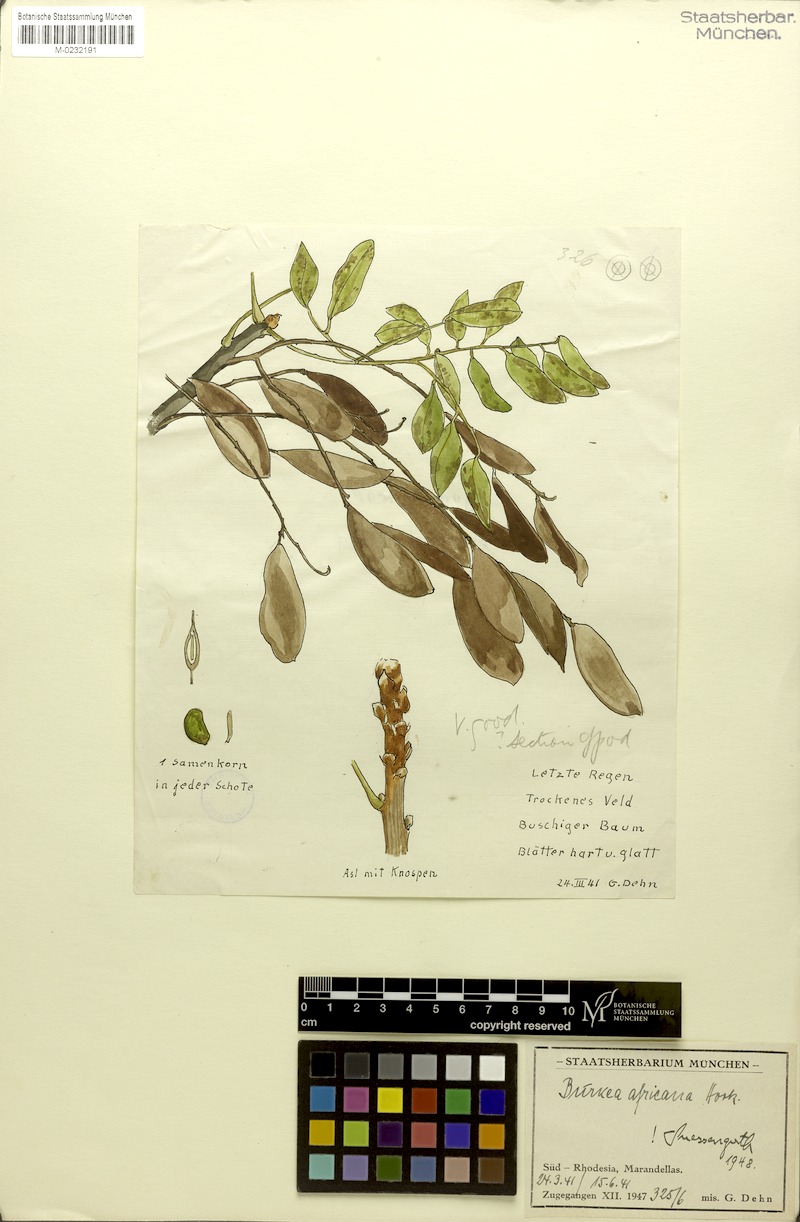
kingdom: Plantae
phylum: Tracheophyta
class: Magnoliopsida
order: Fabales
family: Fabaceae
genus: Burkea
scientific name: Burkea africana
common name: Mkalati tree
